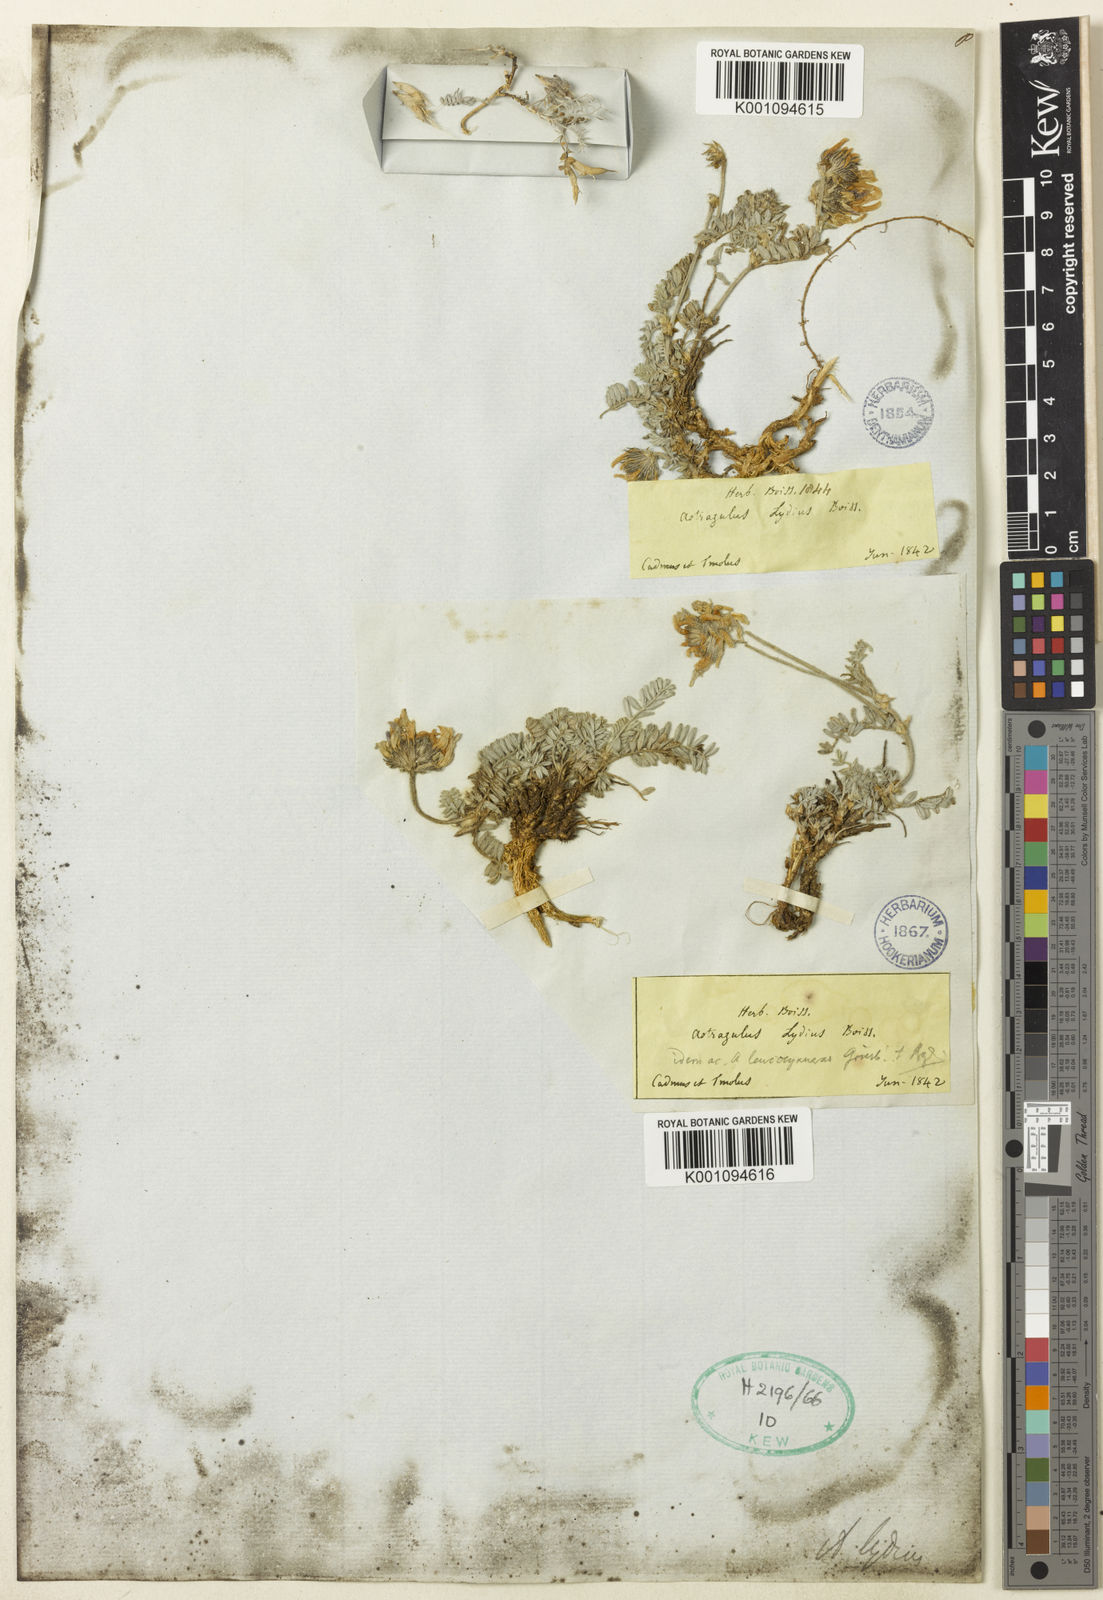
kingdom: Plantae
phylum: Tracheophyta
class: Magnoliopsida
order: Fabales
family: Fabaceae
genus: Astragalus
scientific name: Astragalus
